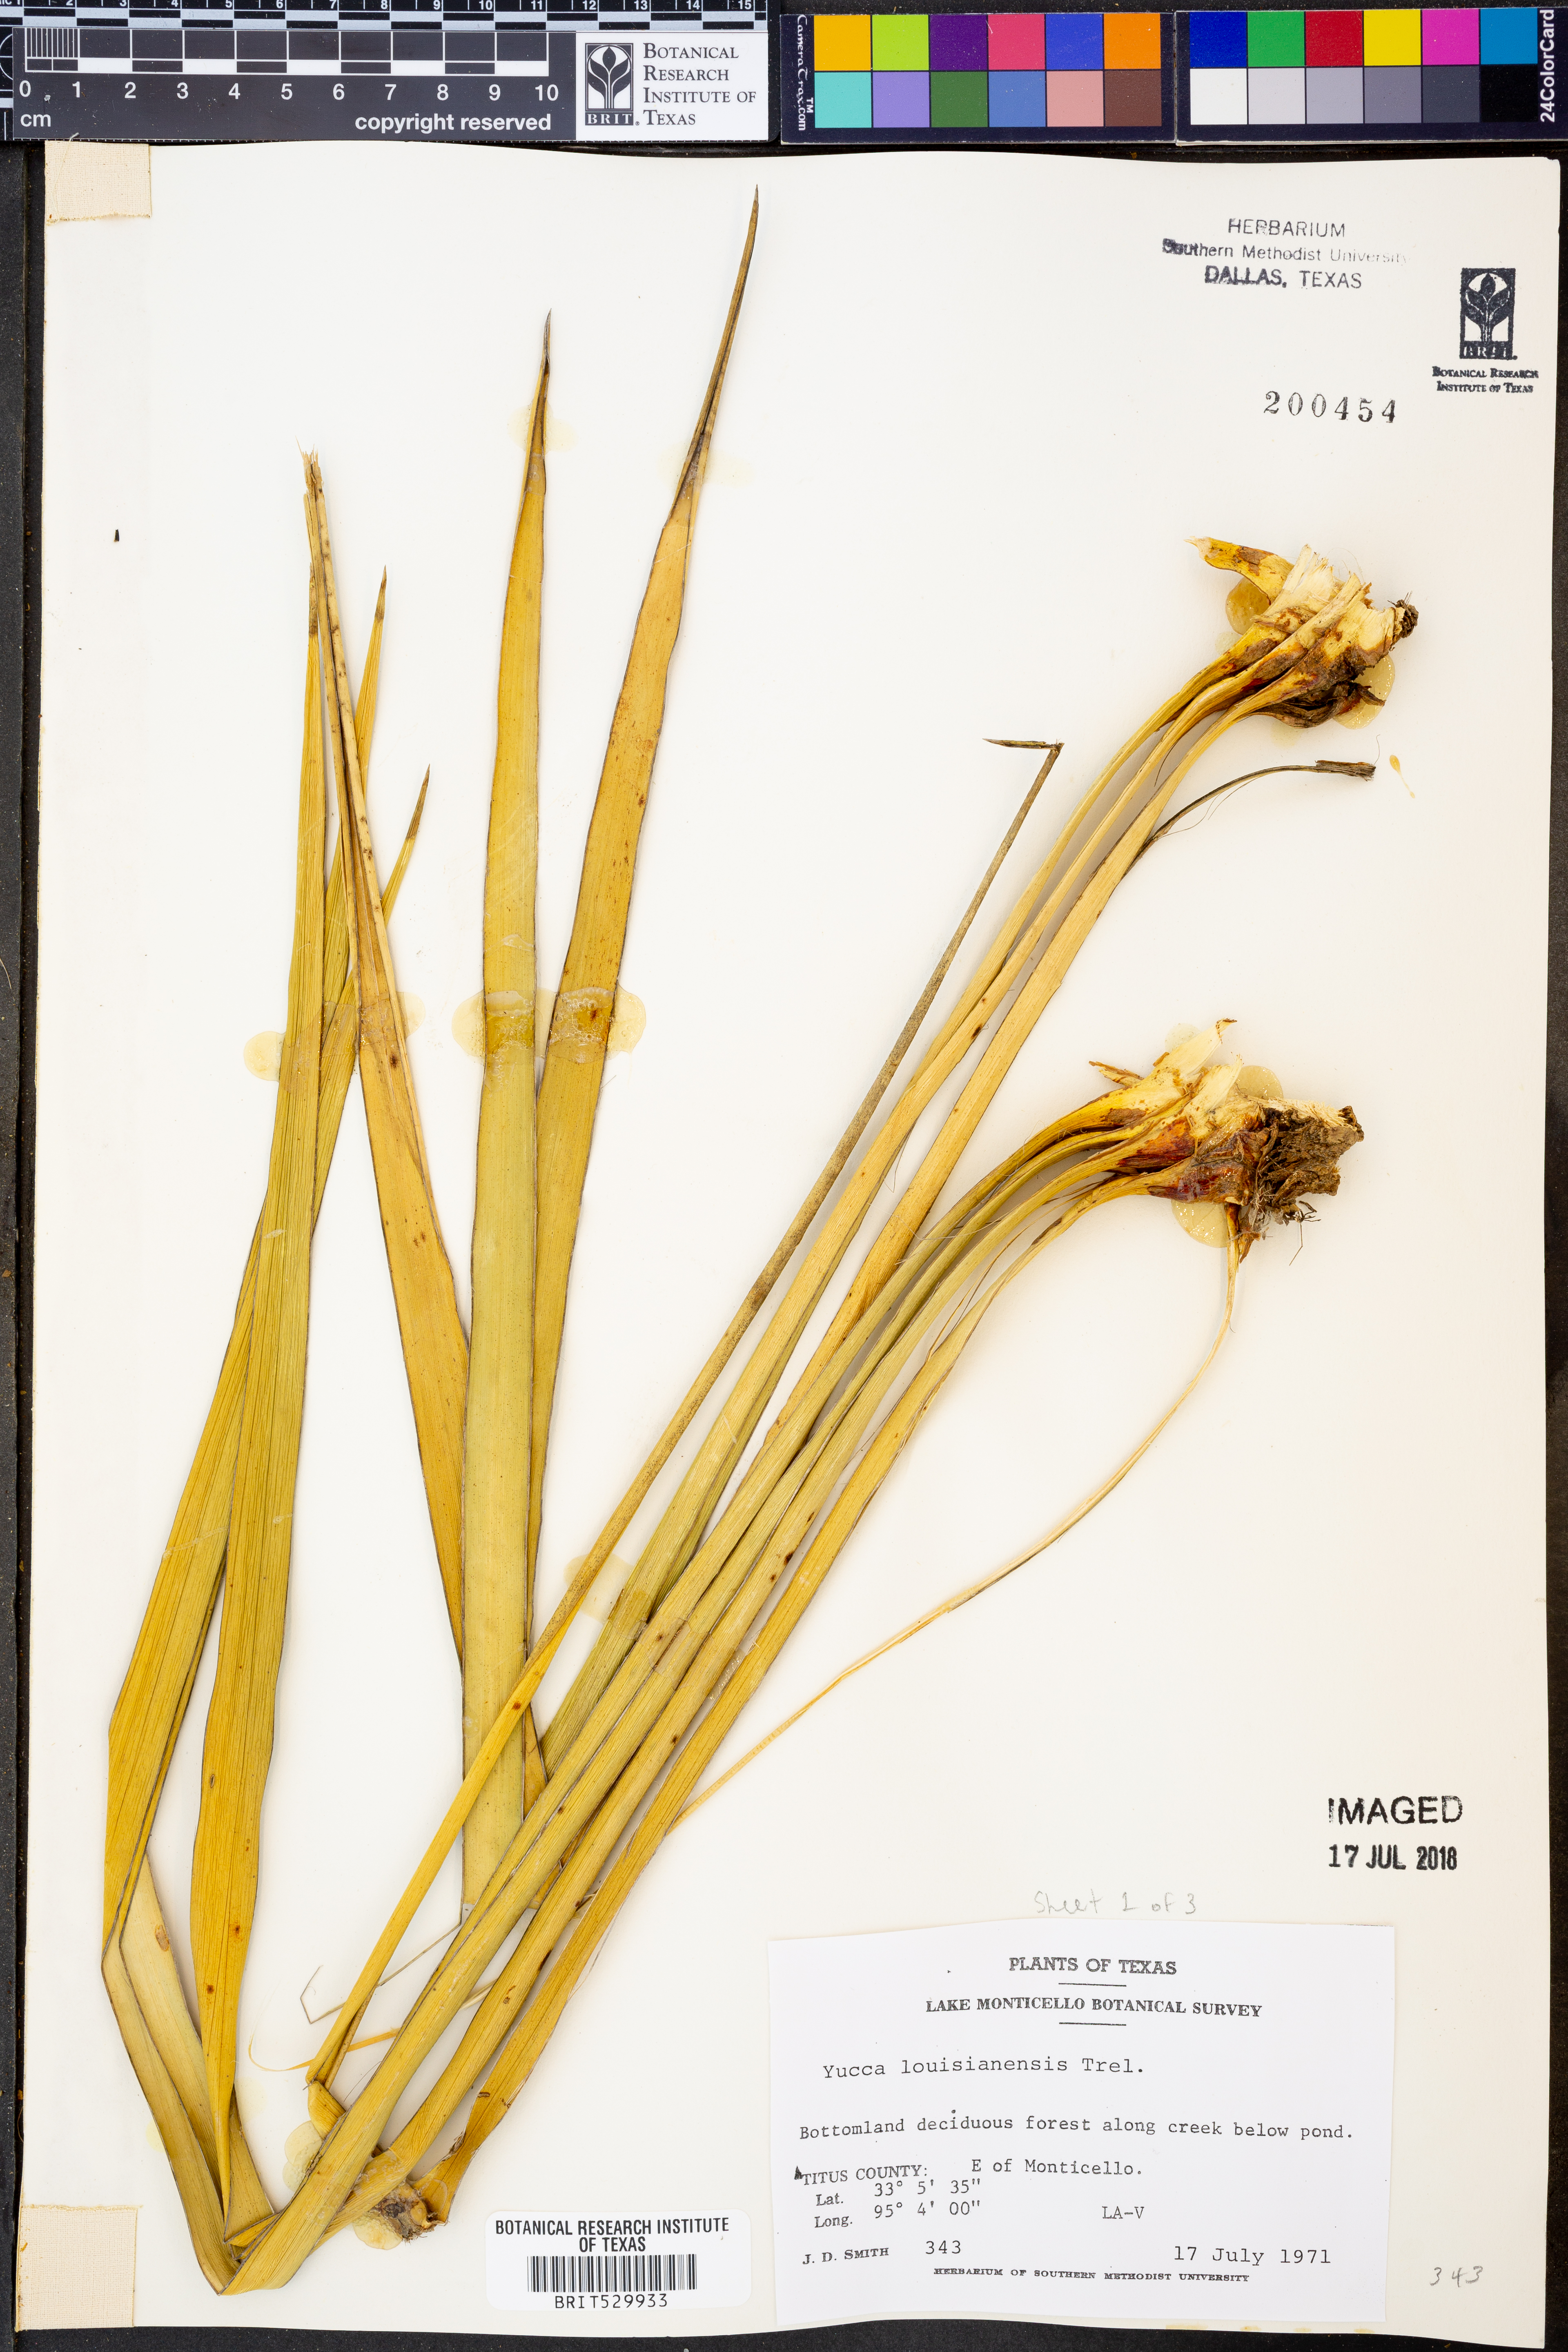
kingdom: Plantae
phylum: Tracheophyta
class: Liliopsida
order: Asparagales
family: Asparagaceae
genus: Yucca
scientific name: Yucca flaccida
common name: Adam's-needle
